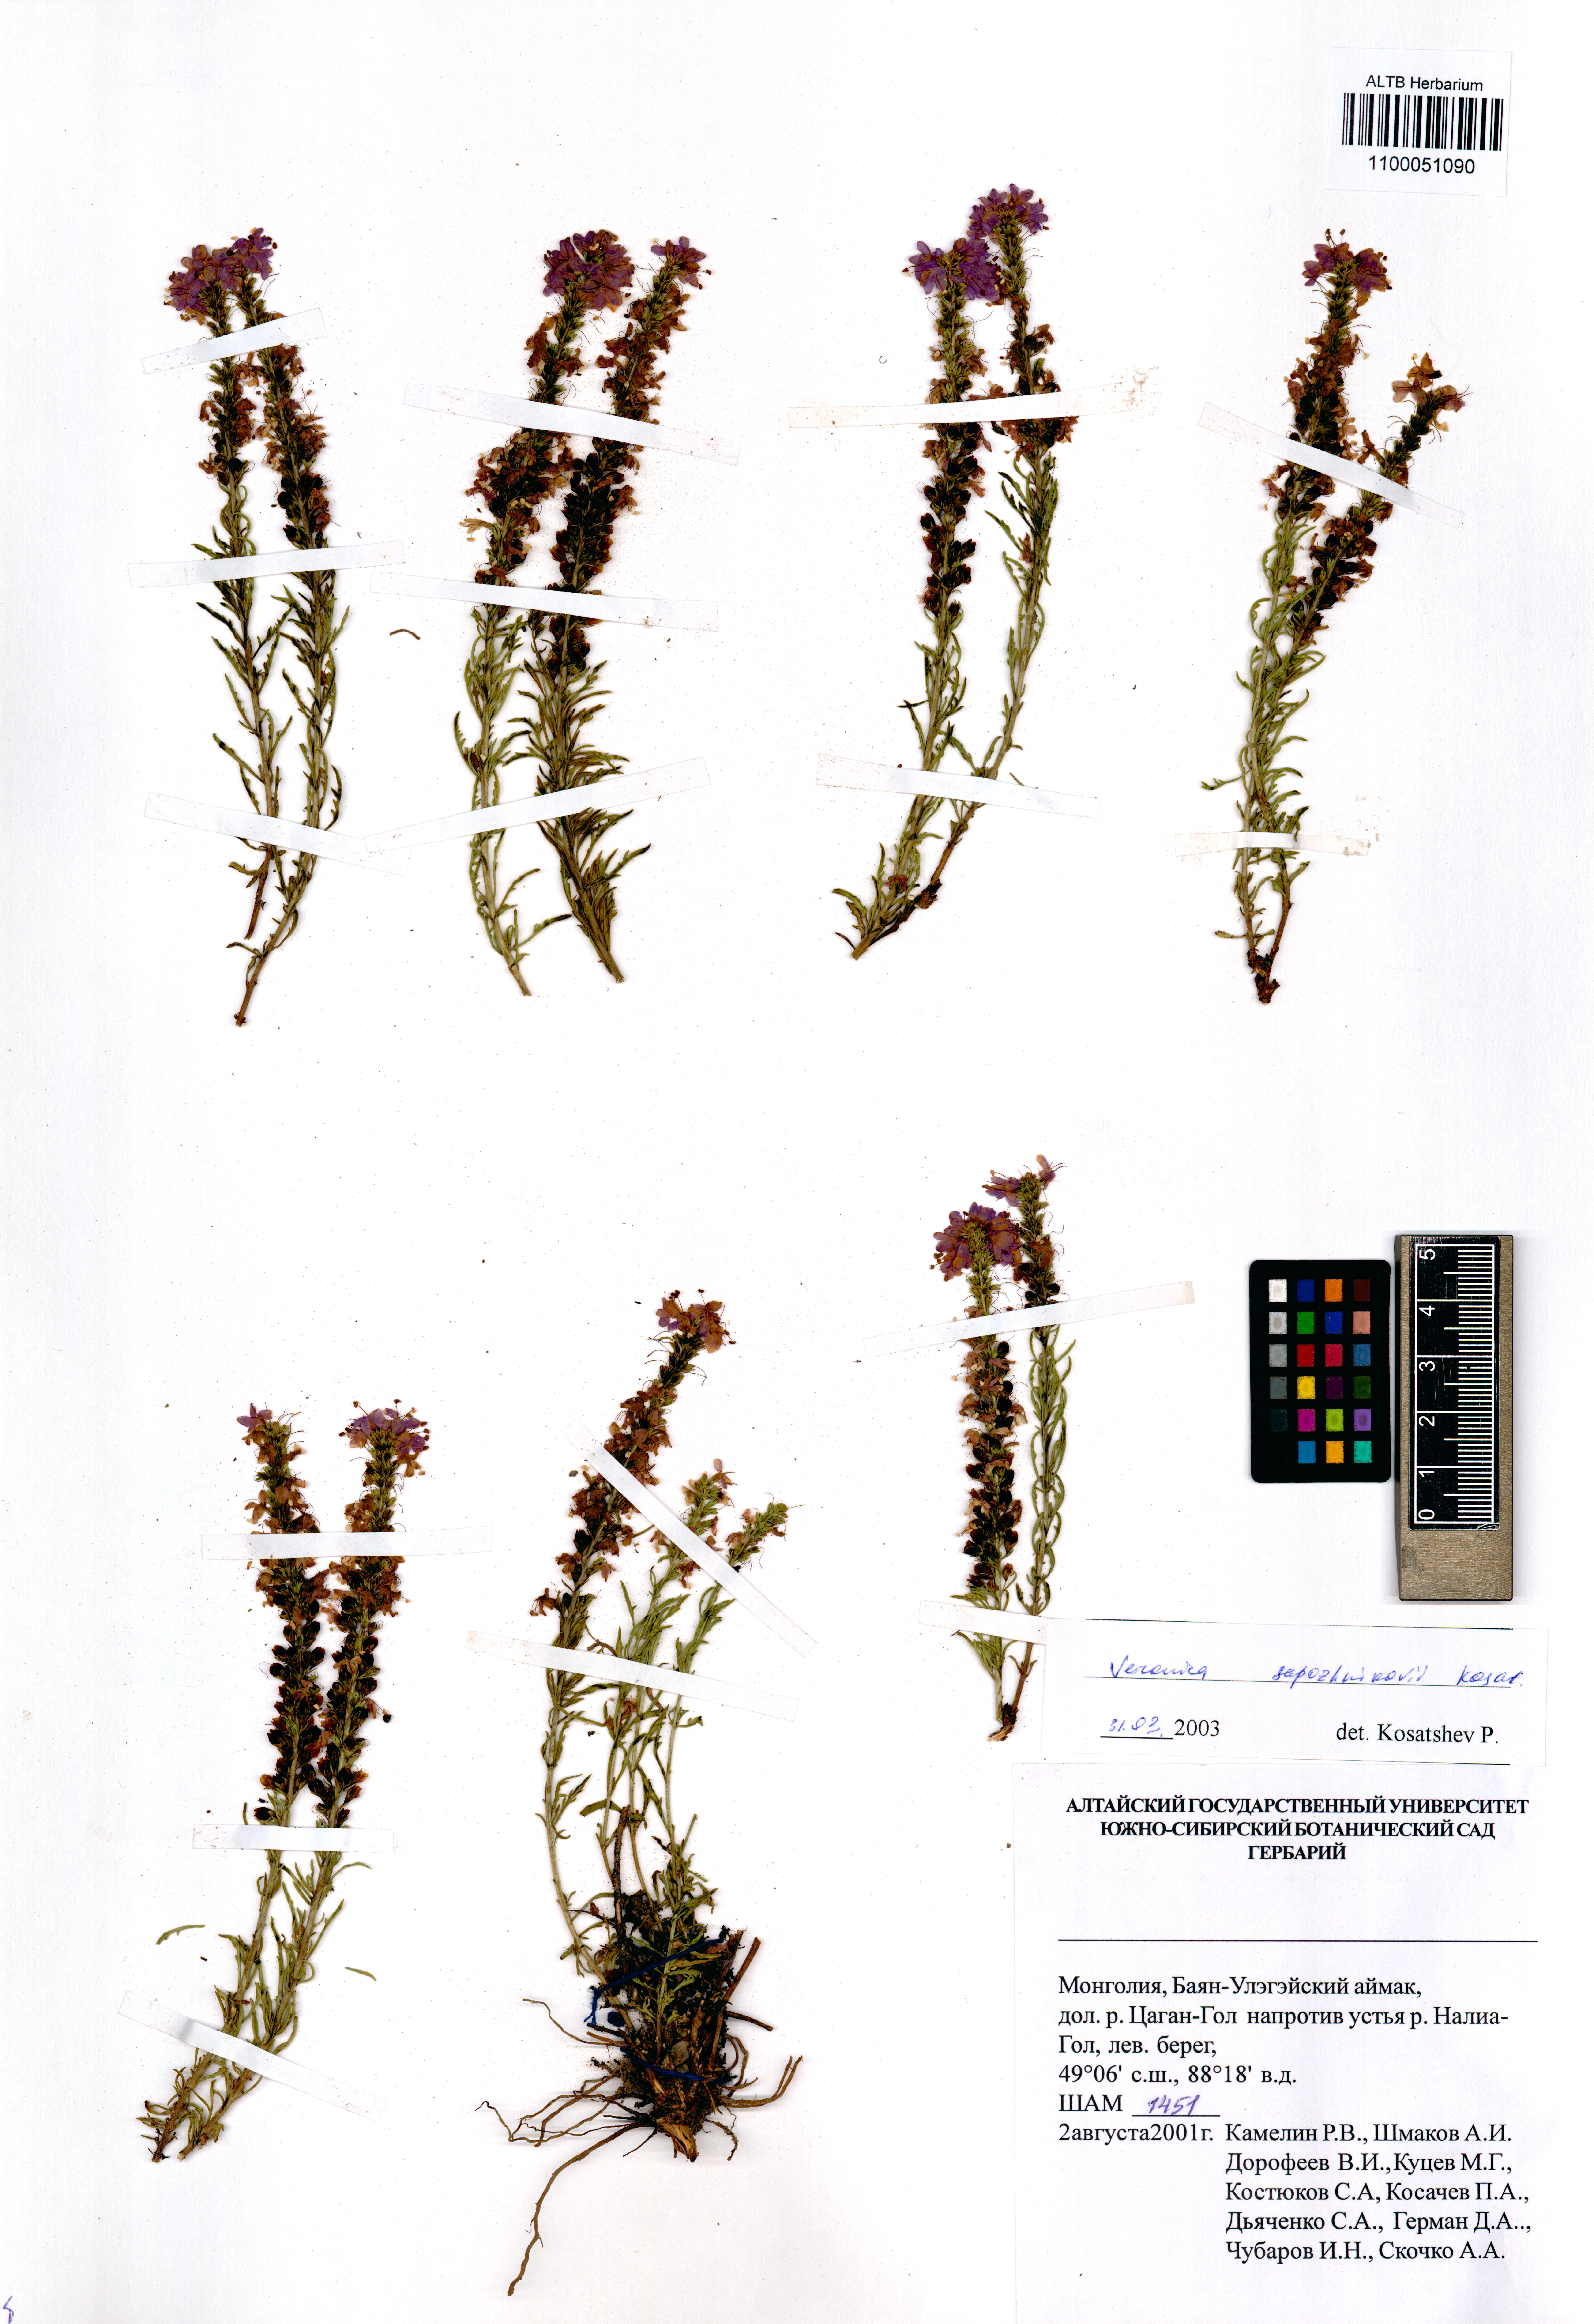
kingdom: Plantae
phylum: Tracheophyta
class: Magnoliopsida
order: Lamiales
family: Plantaginaceae
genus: Veronica
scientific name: Veronica sapozhnikovii
